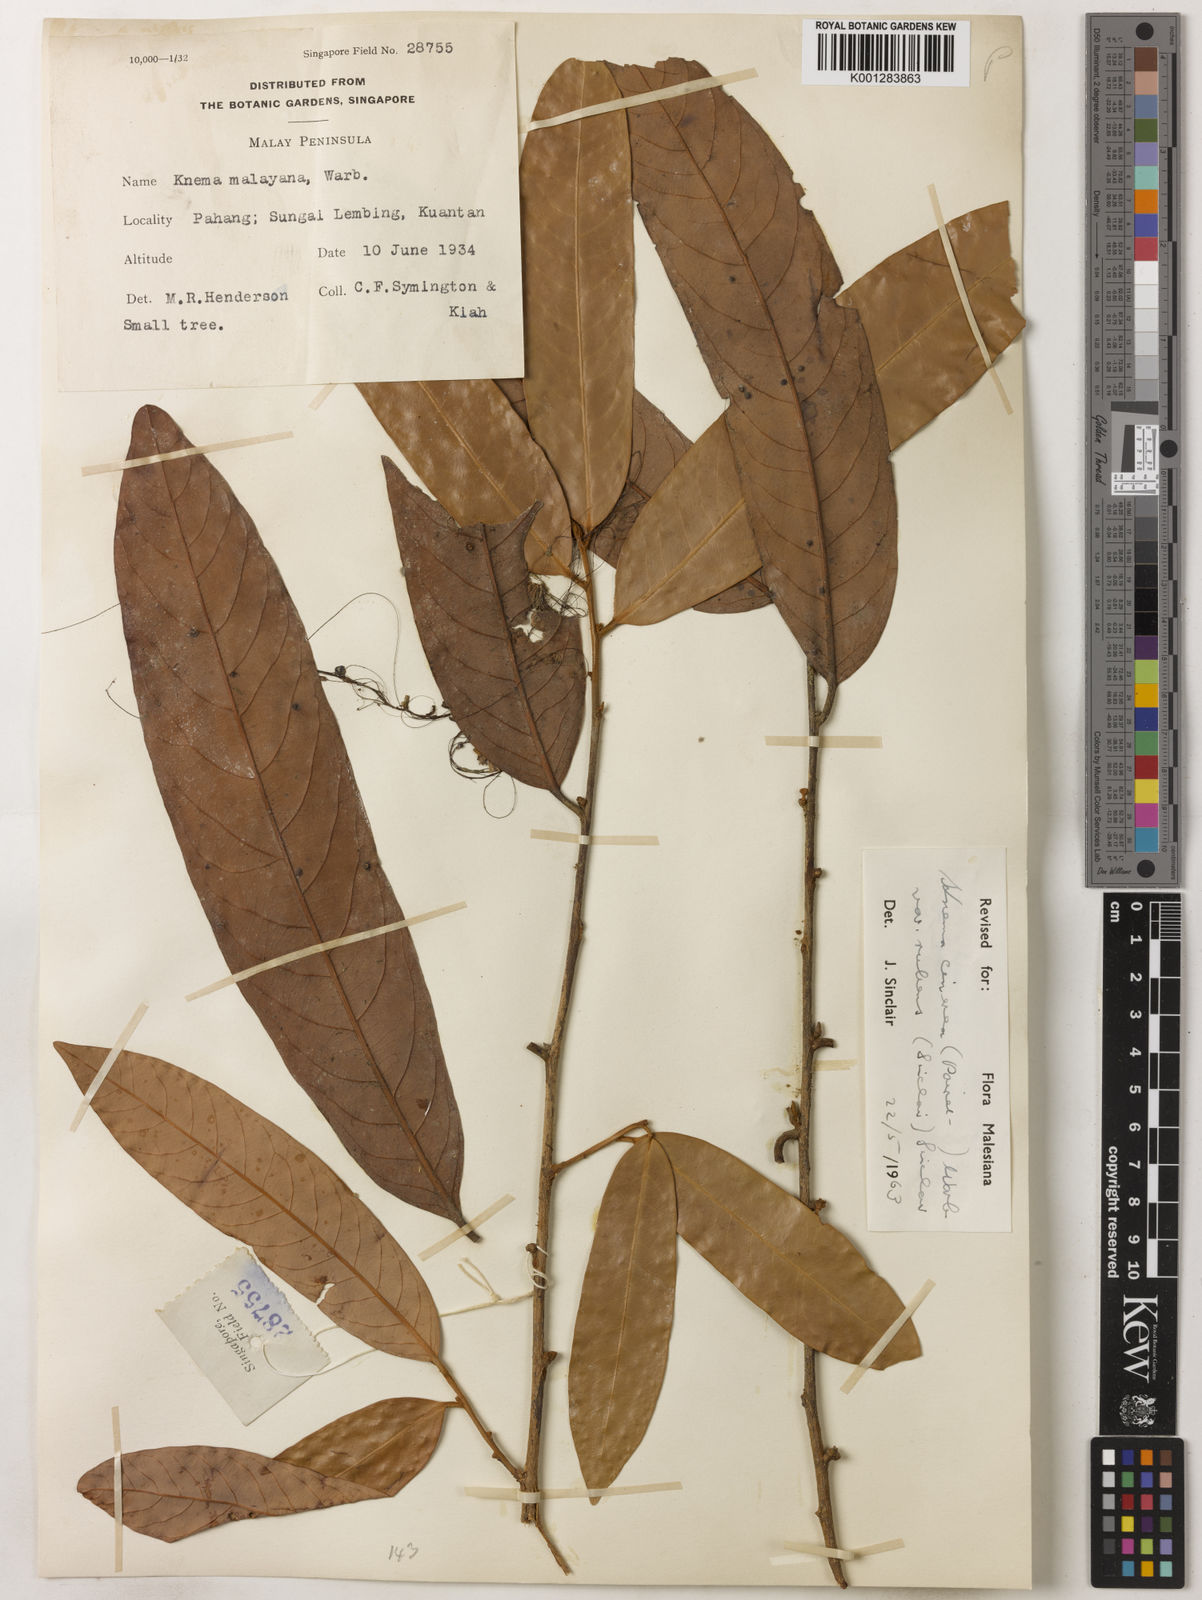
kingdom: Plantae
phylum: Tracheophyta
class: Magnoliopsida
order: Magnoliales
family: Myristicaceae
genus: Knema
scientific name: Knema
